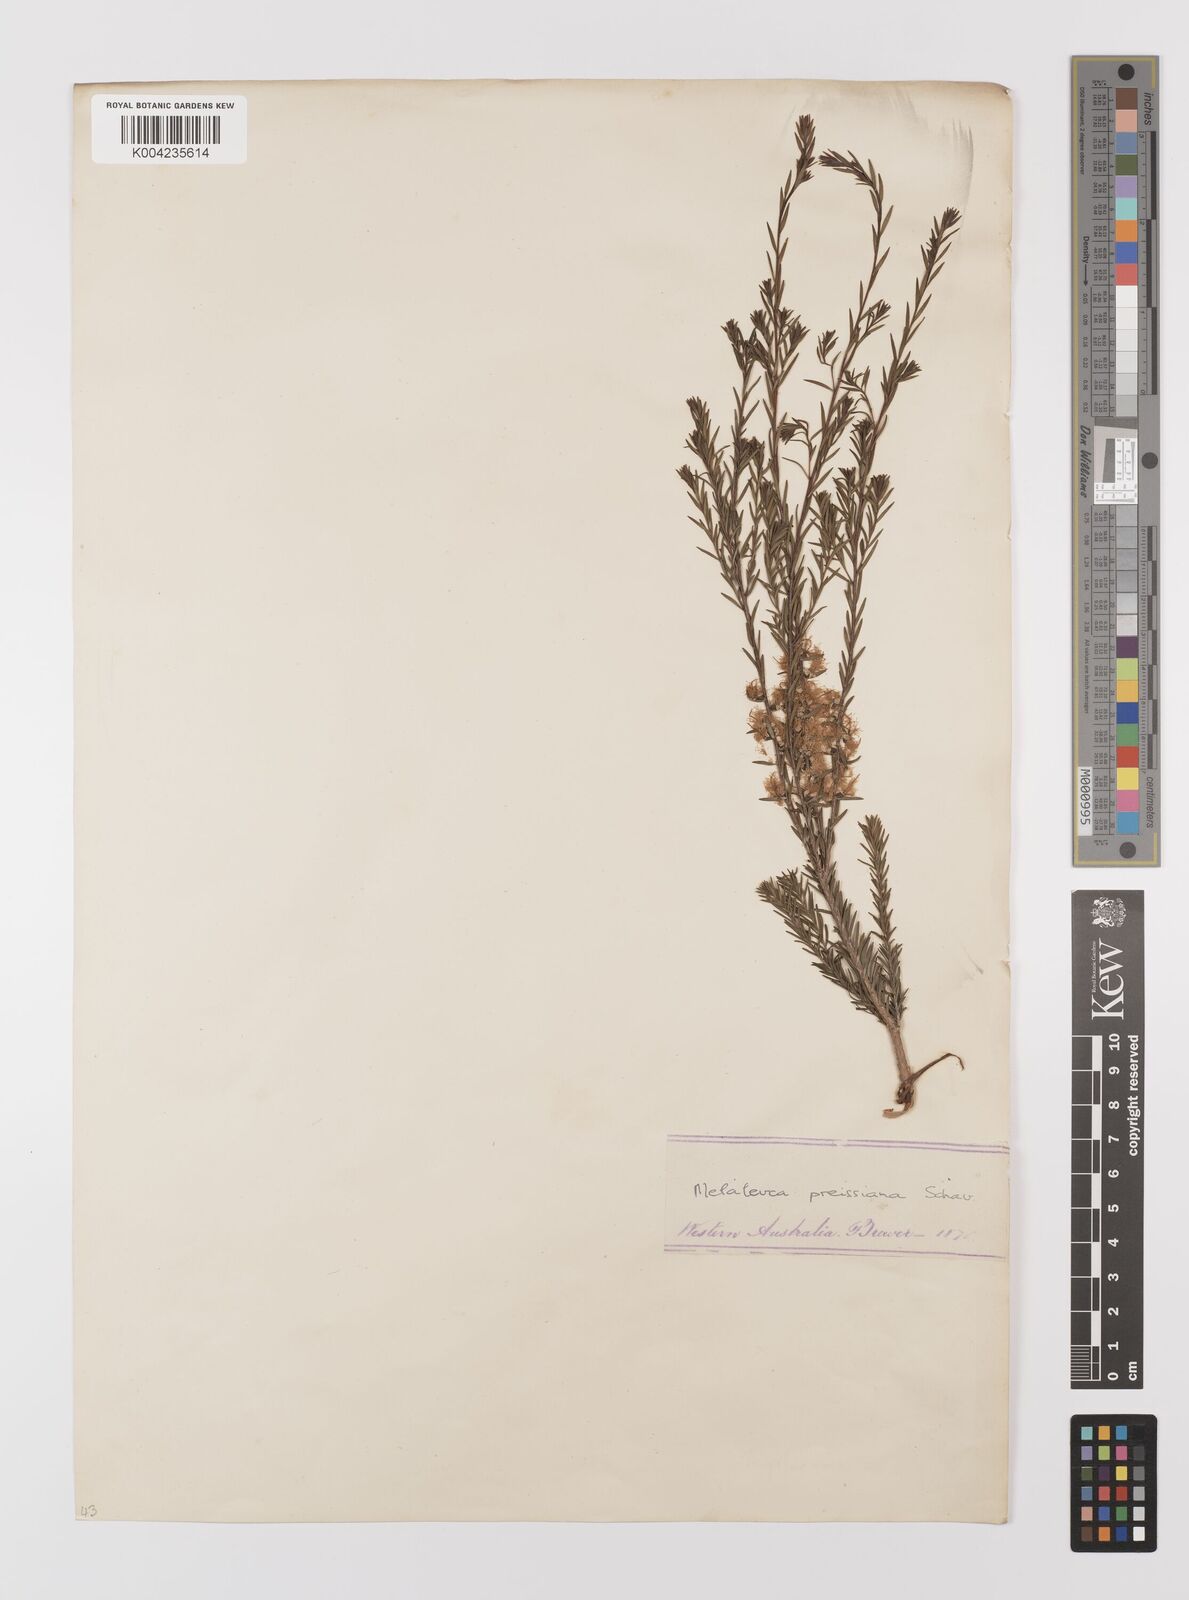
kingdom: Plantae
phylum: Tracheophyta
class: Magnoliopsida
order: Myrtales
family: Myrtaceae
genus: Melaleuca
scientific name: Melaleuca preissiana
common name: Preiss's paperbark
